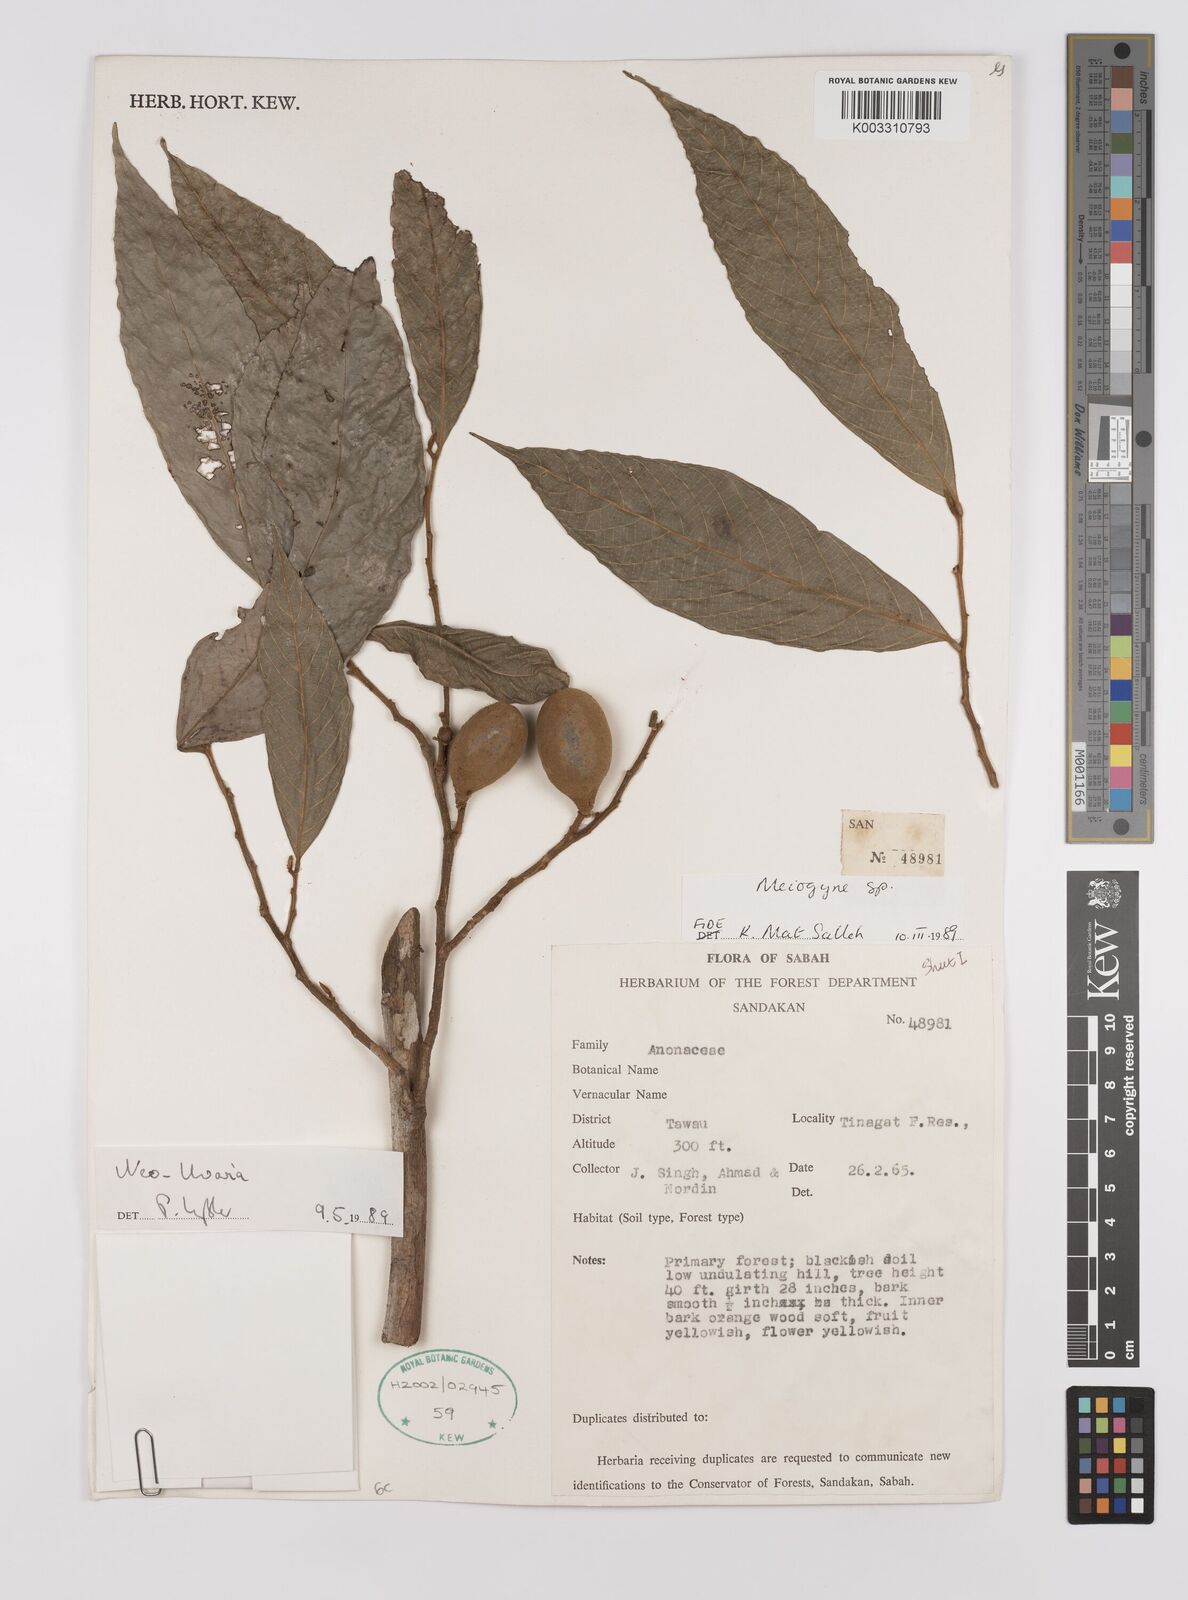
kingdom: Plantae
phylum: Tracheophyta
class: Magnoliopsida
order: Magnoliales
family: Annonaceae
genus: Neo-uvaria
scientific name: Neo-uvaria
